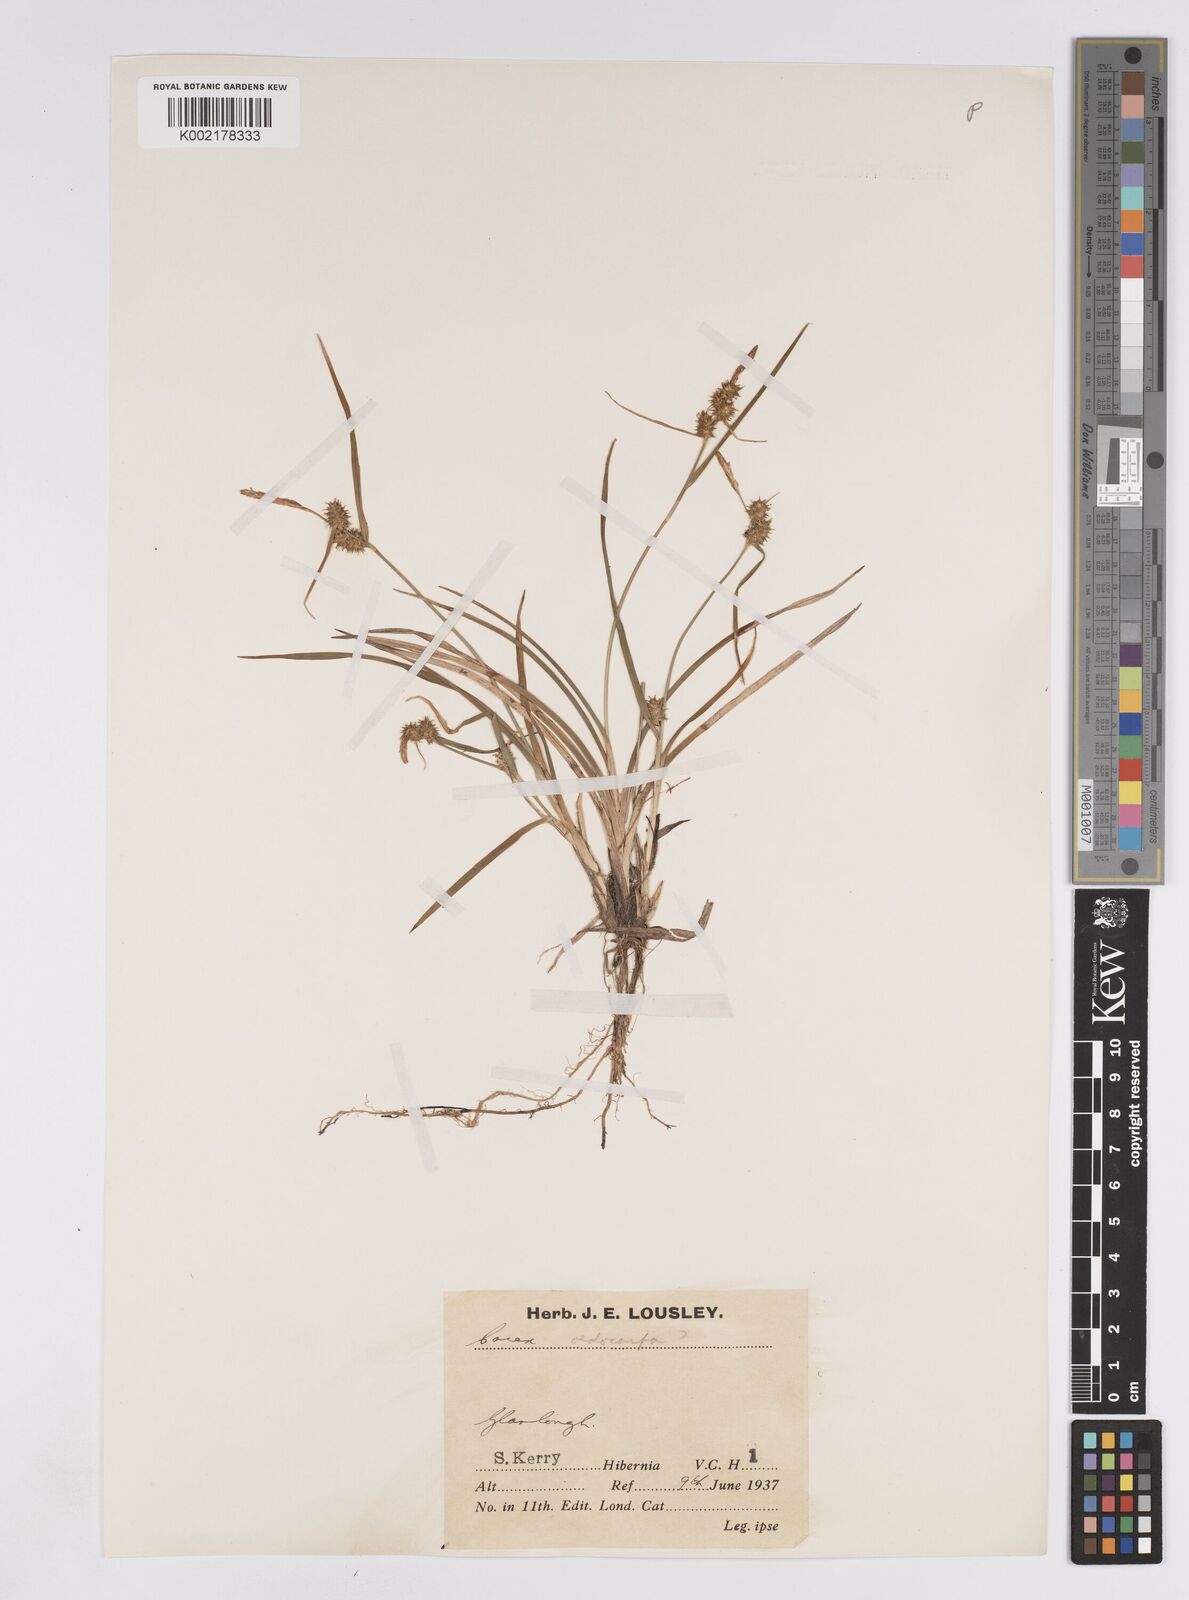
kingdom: Plantae
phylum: Tracheophyta
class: Liliopsida
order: Poales
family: Cyperaceae
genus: Carex
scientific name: Carex demissa
